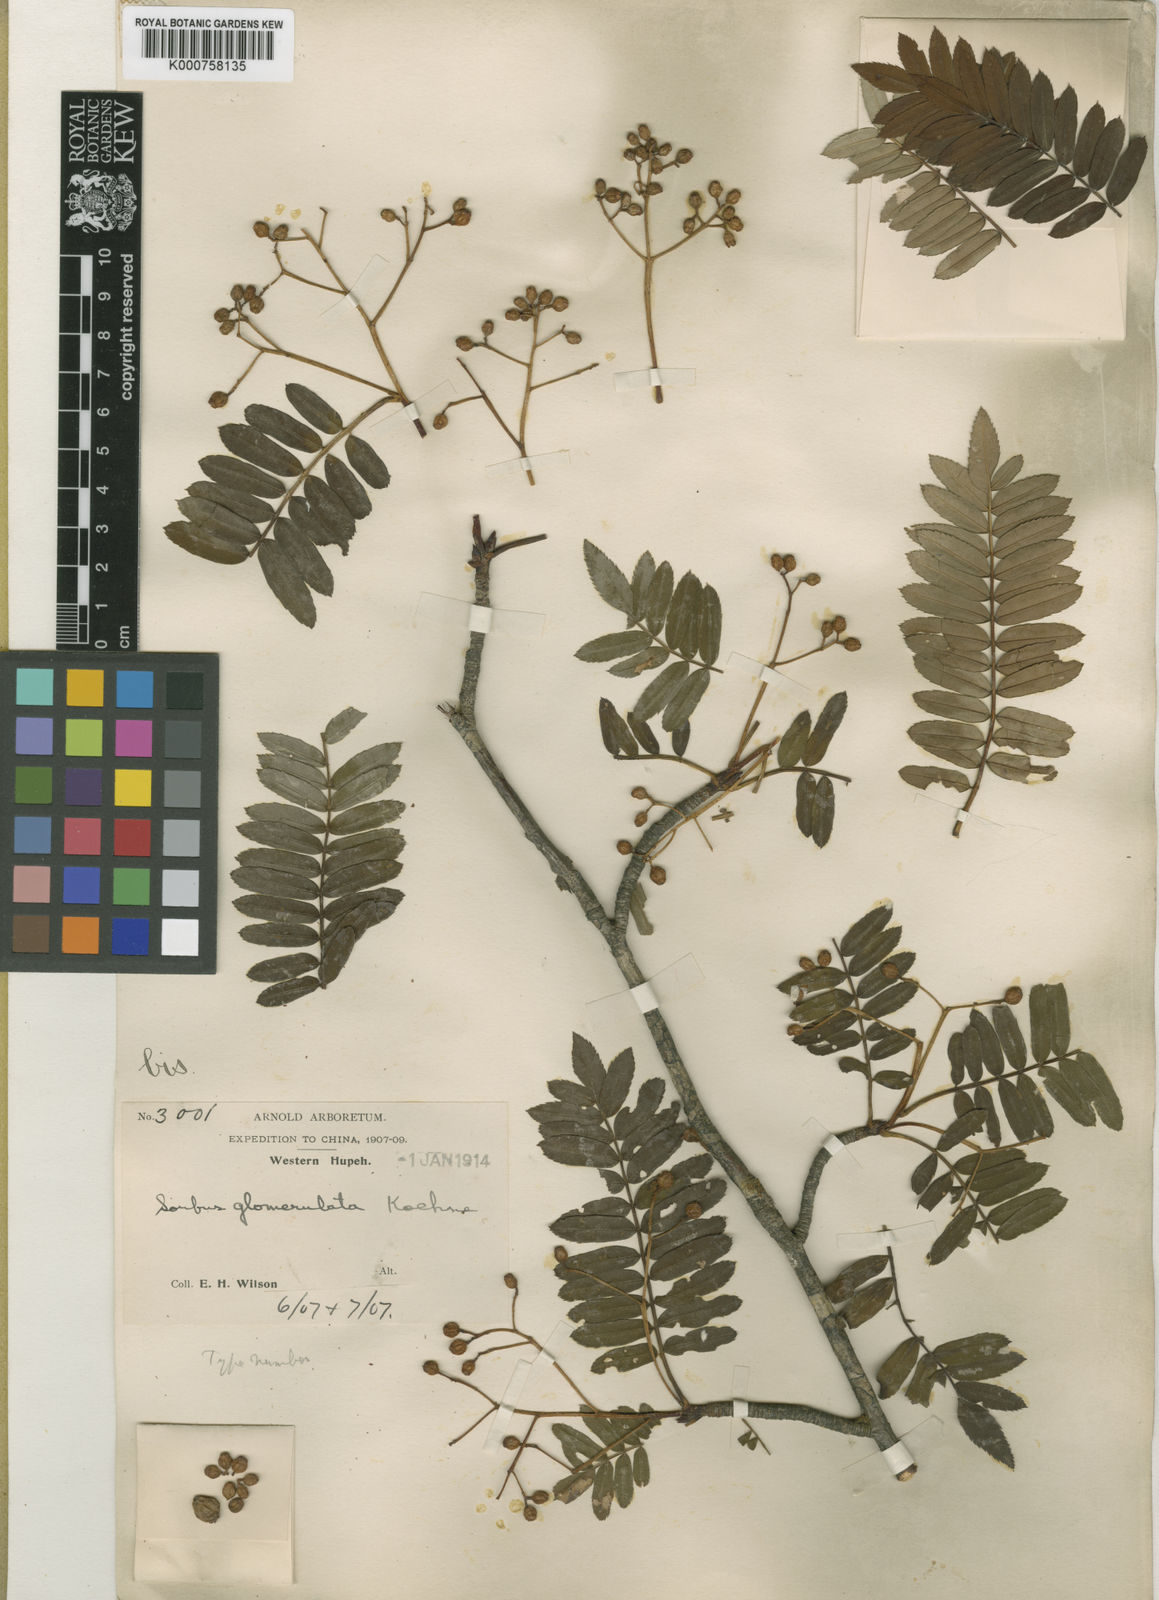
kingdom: Plantae
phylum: Tracheophyta
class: Magnoliopsida
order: Rosales
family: Rosaceae
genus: Sorbus
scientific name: Sorbus glomerulata
